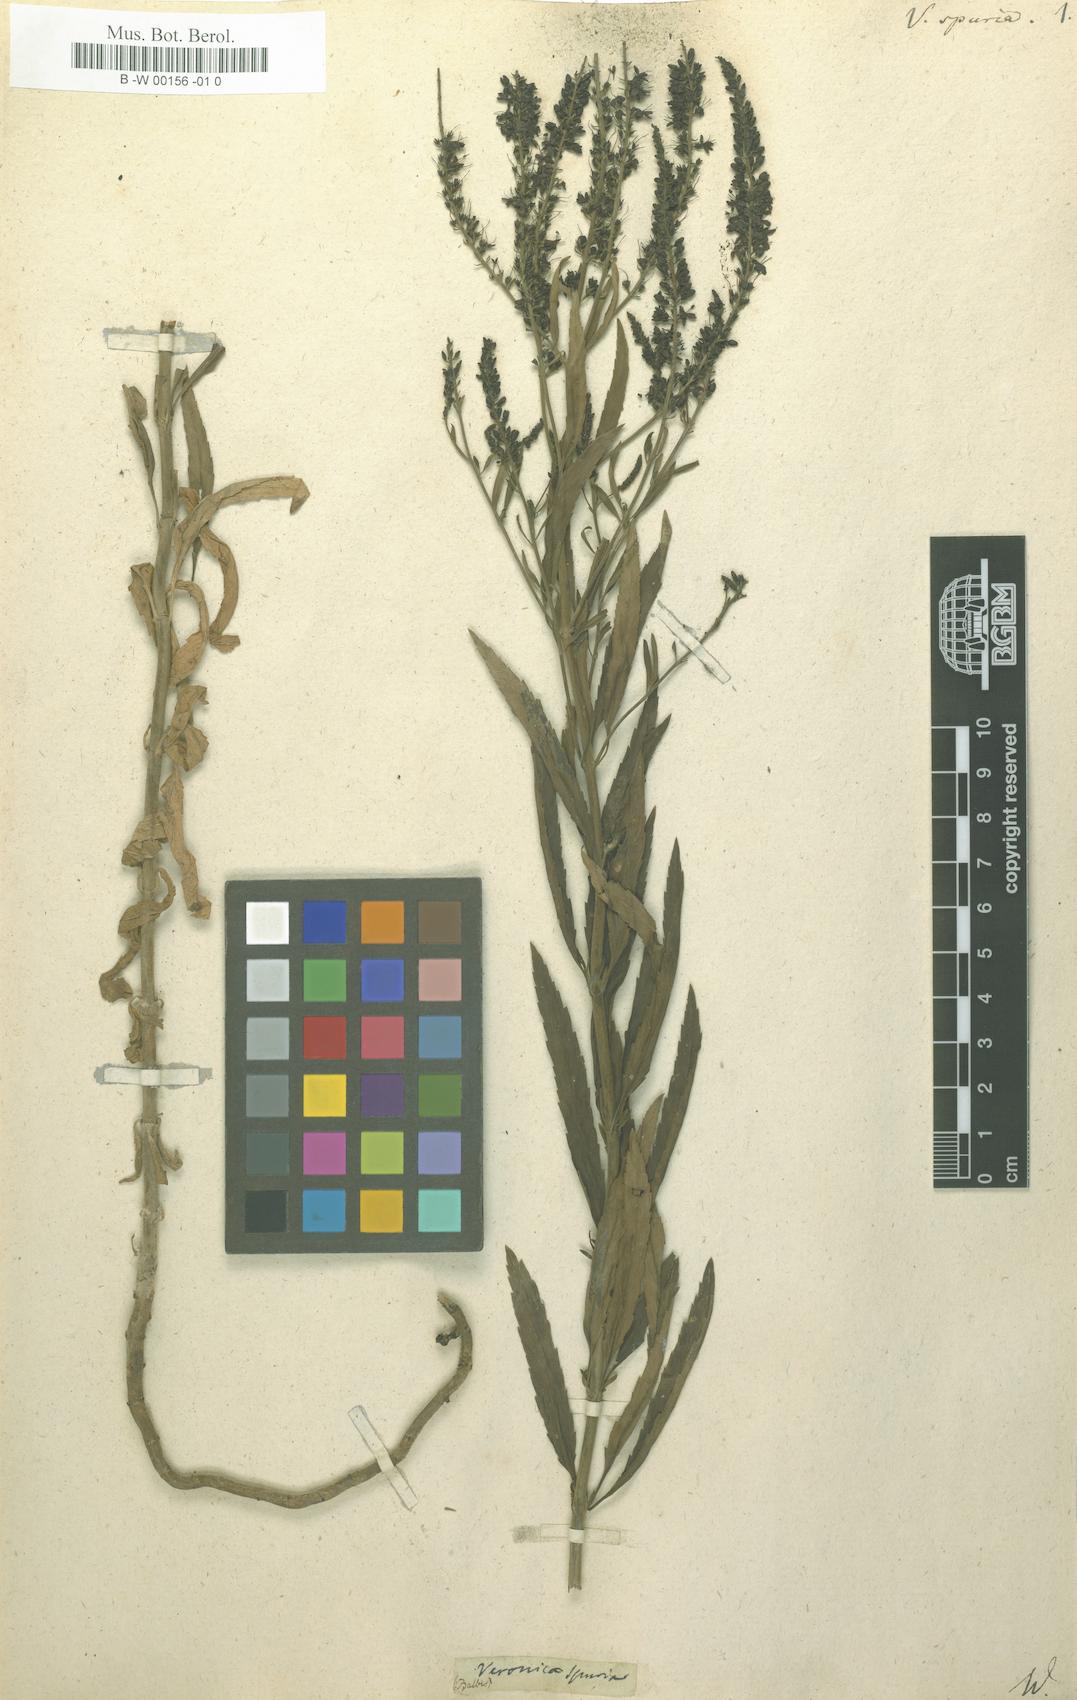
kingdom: Plantae
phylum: Tracheophyta
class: Magnoliopsida
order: Lamiales
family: Plantaginaceae
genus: Veronica
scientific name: Veronica spuria
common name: Bastard speedwell
